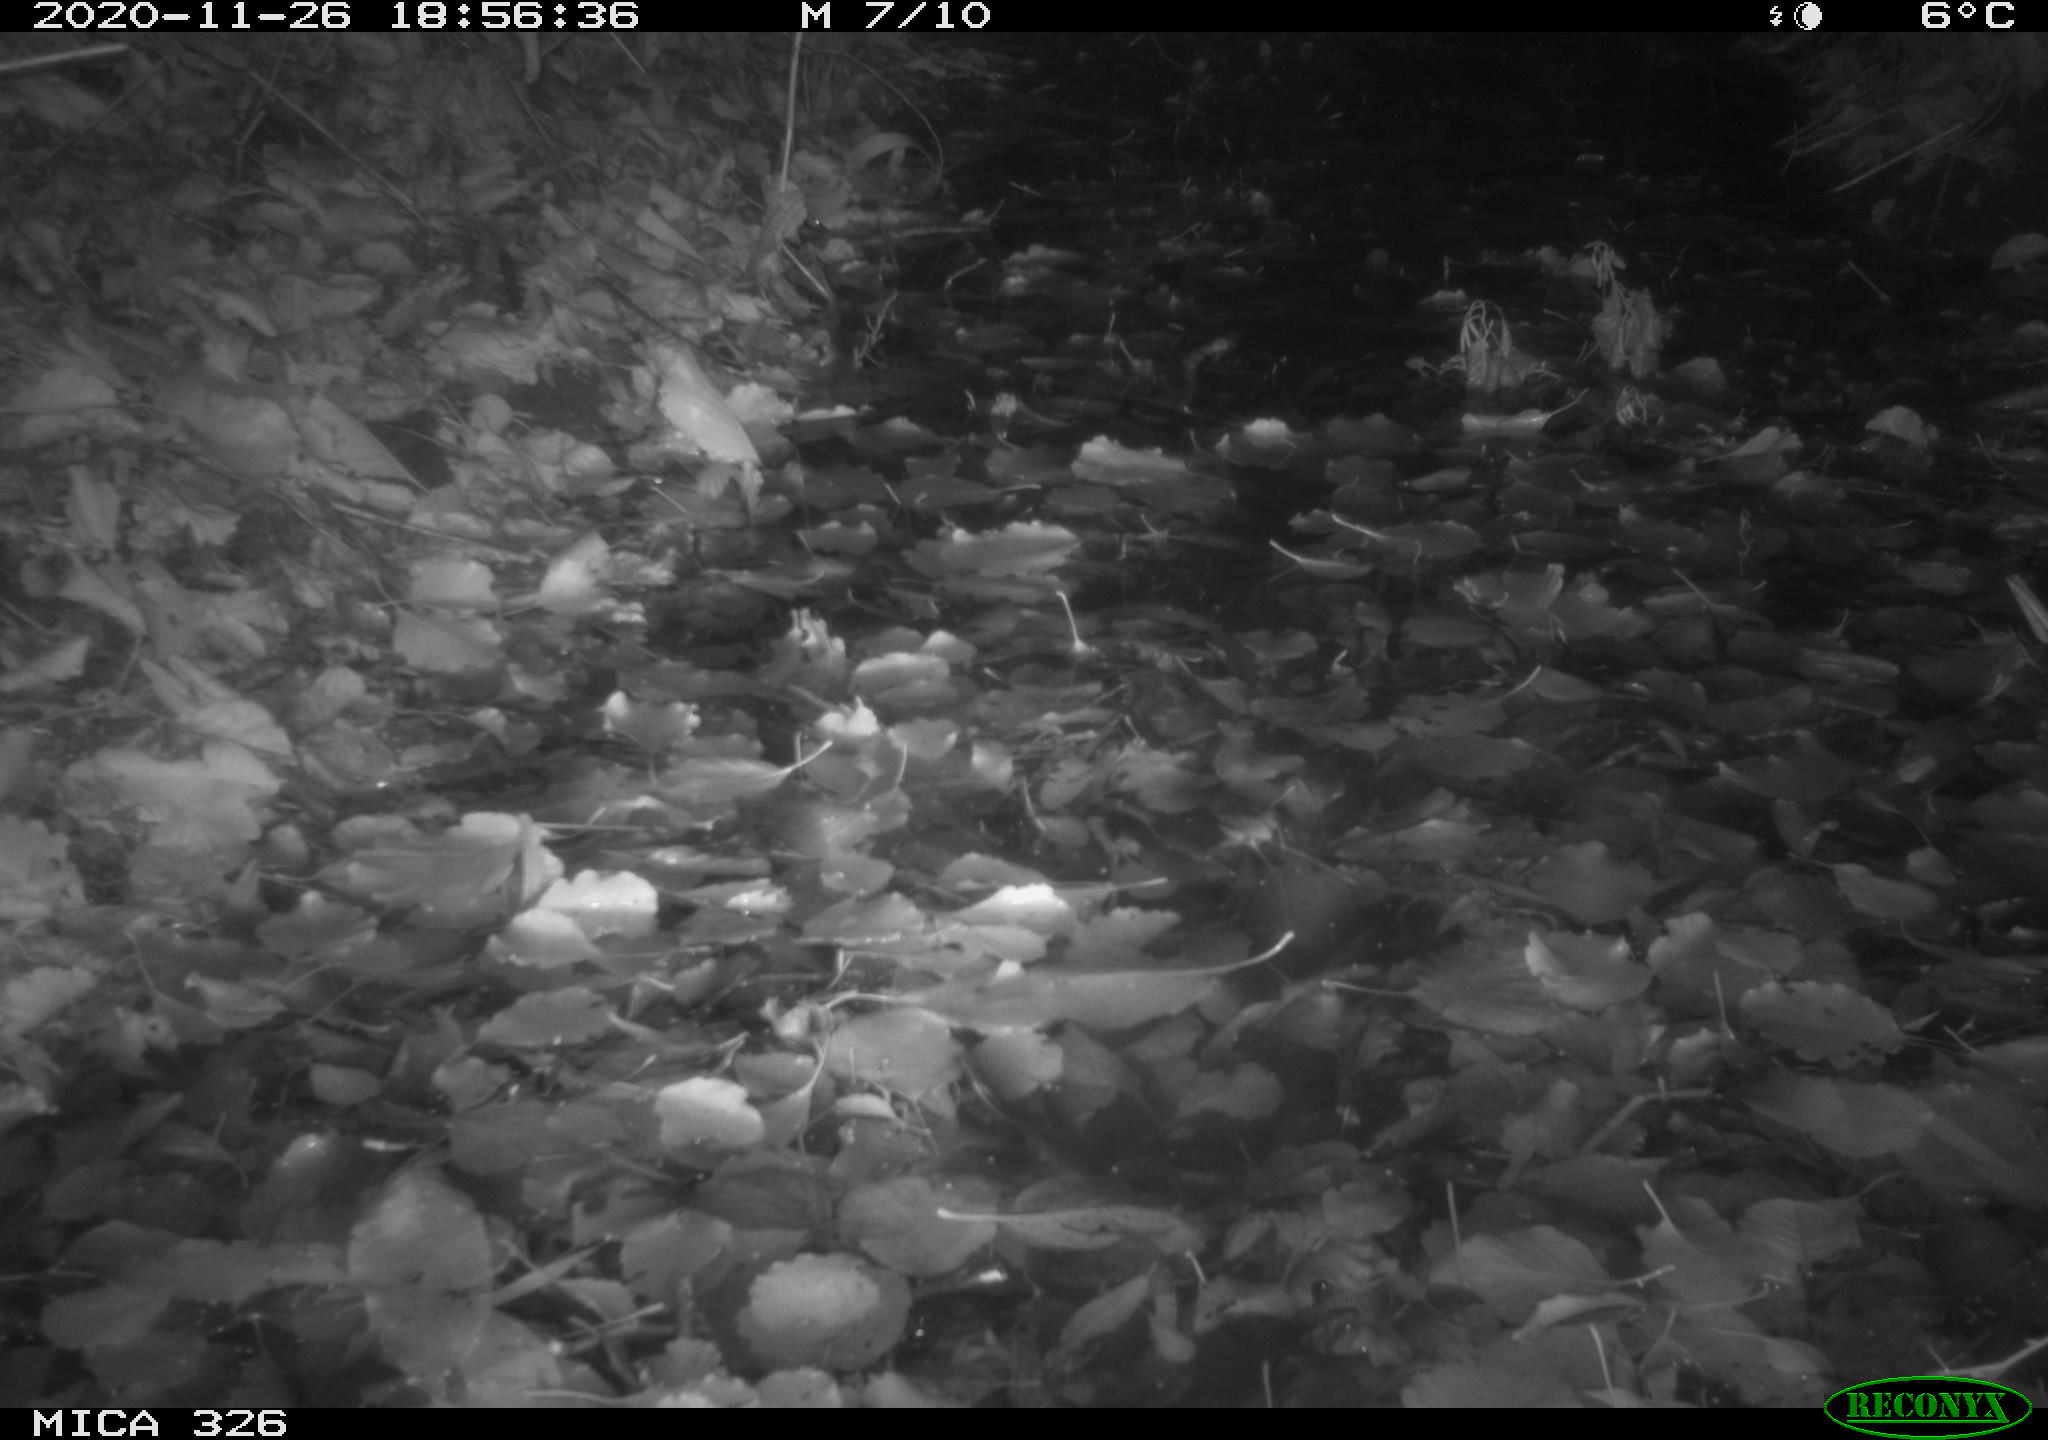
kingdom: Animalia
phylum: Chordata
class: Mammalia
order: Carnivora
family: Mustelidae
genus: Lutra
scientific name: Lutra lutra
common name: European otter
